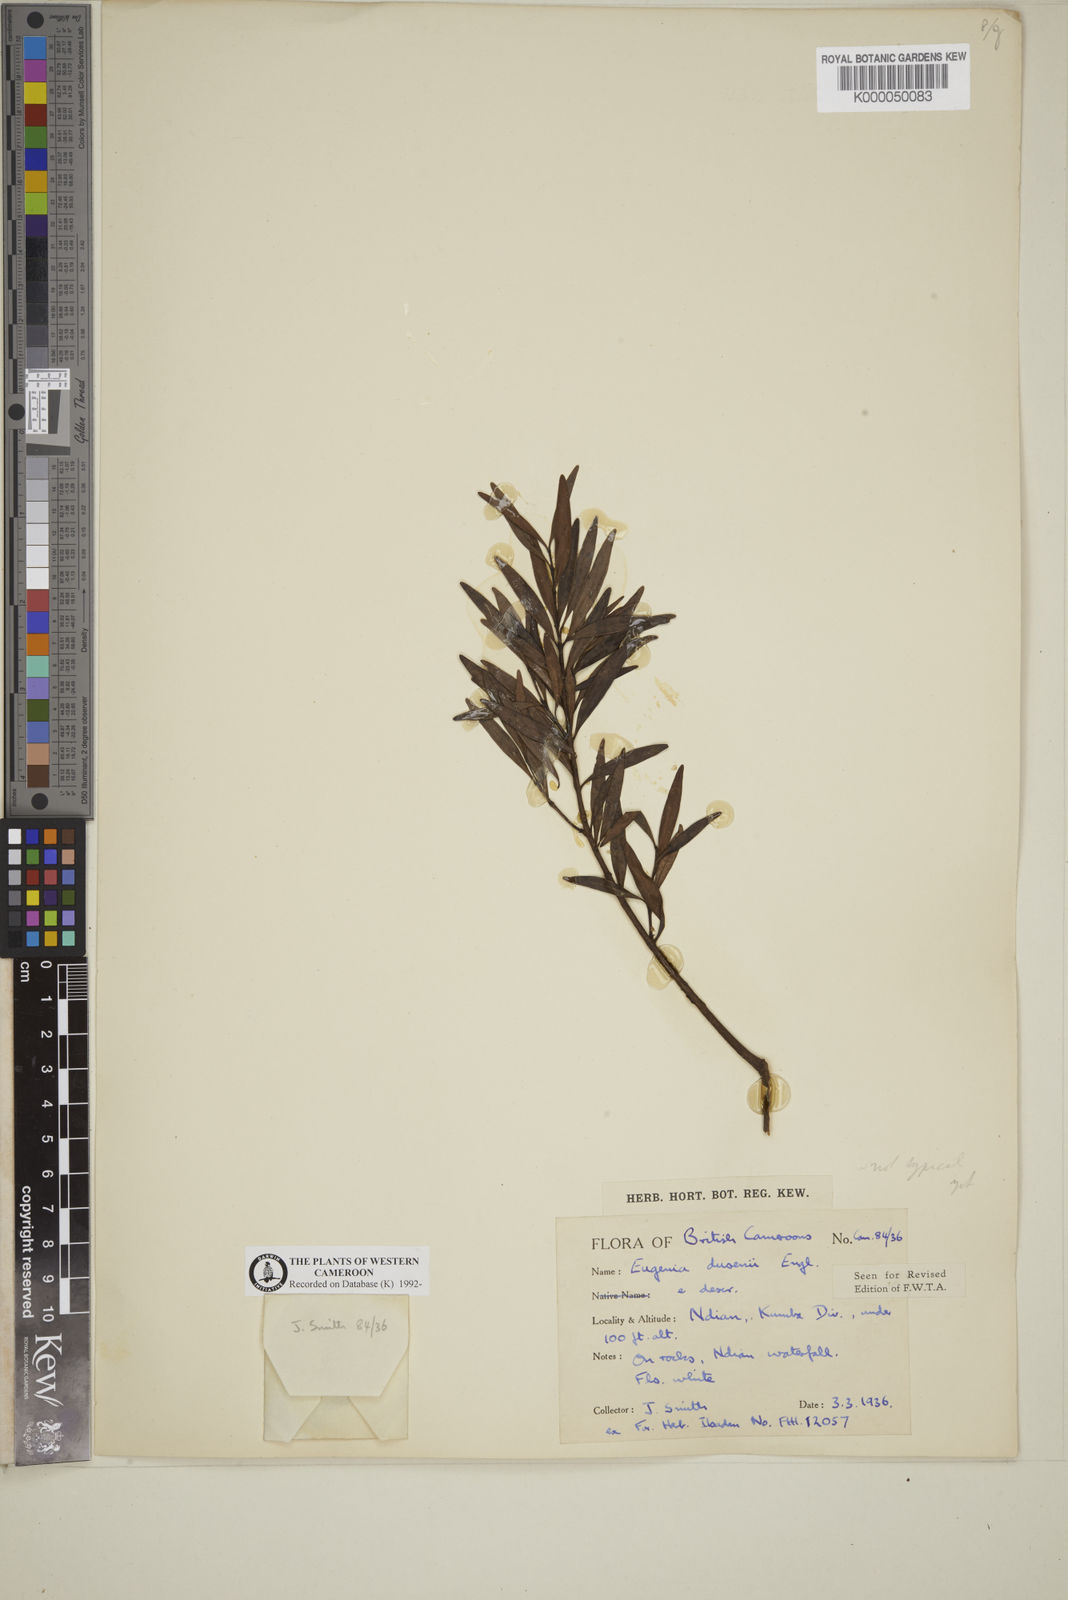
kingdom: Plantae
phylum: Tracheophyta
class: Magnoliopsida
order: Myrtales
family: Myrtaceae
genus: Eugenia
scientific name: Eugenia dusenii
